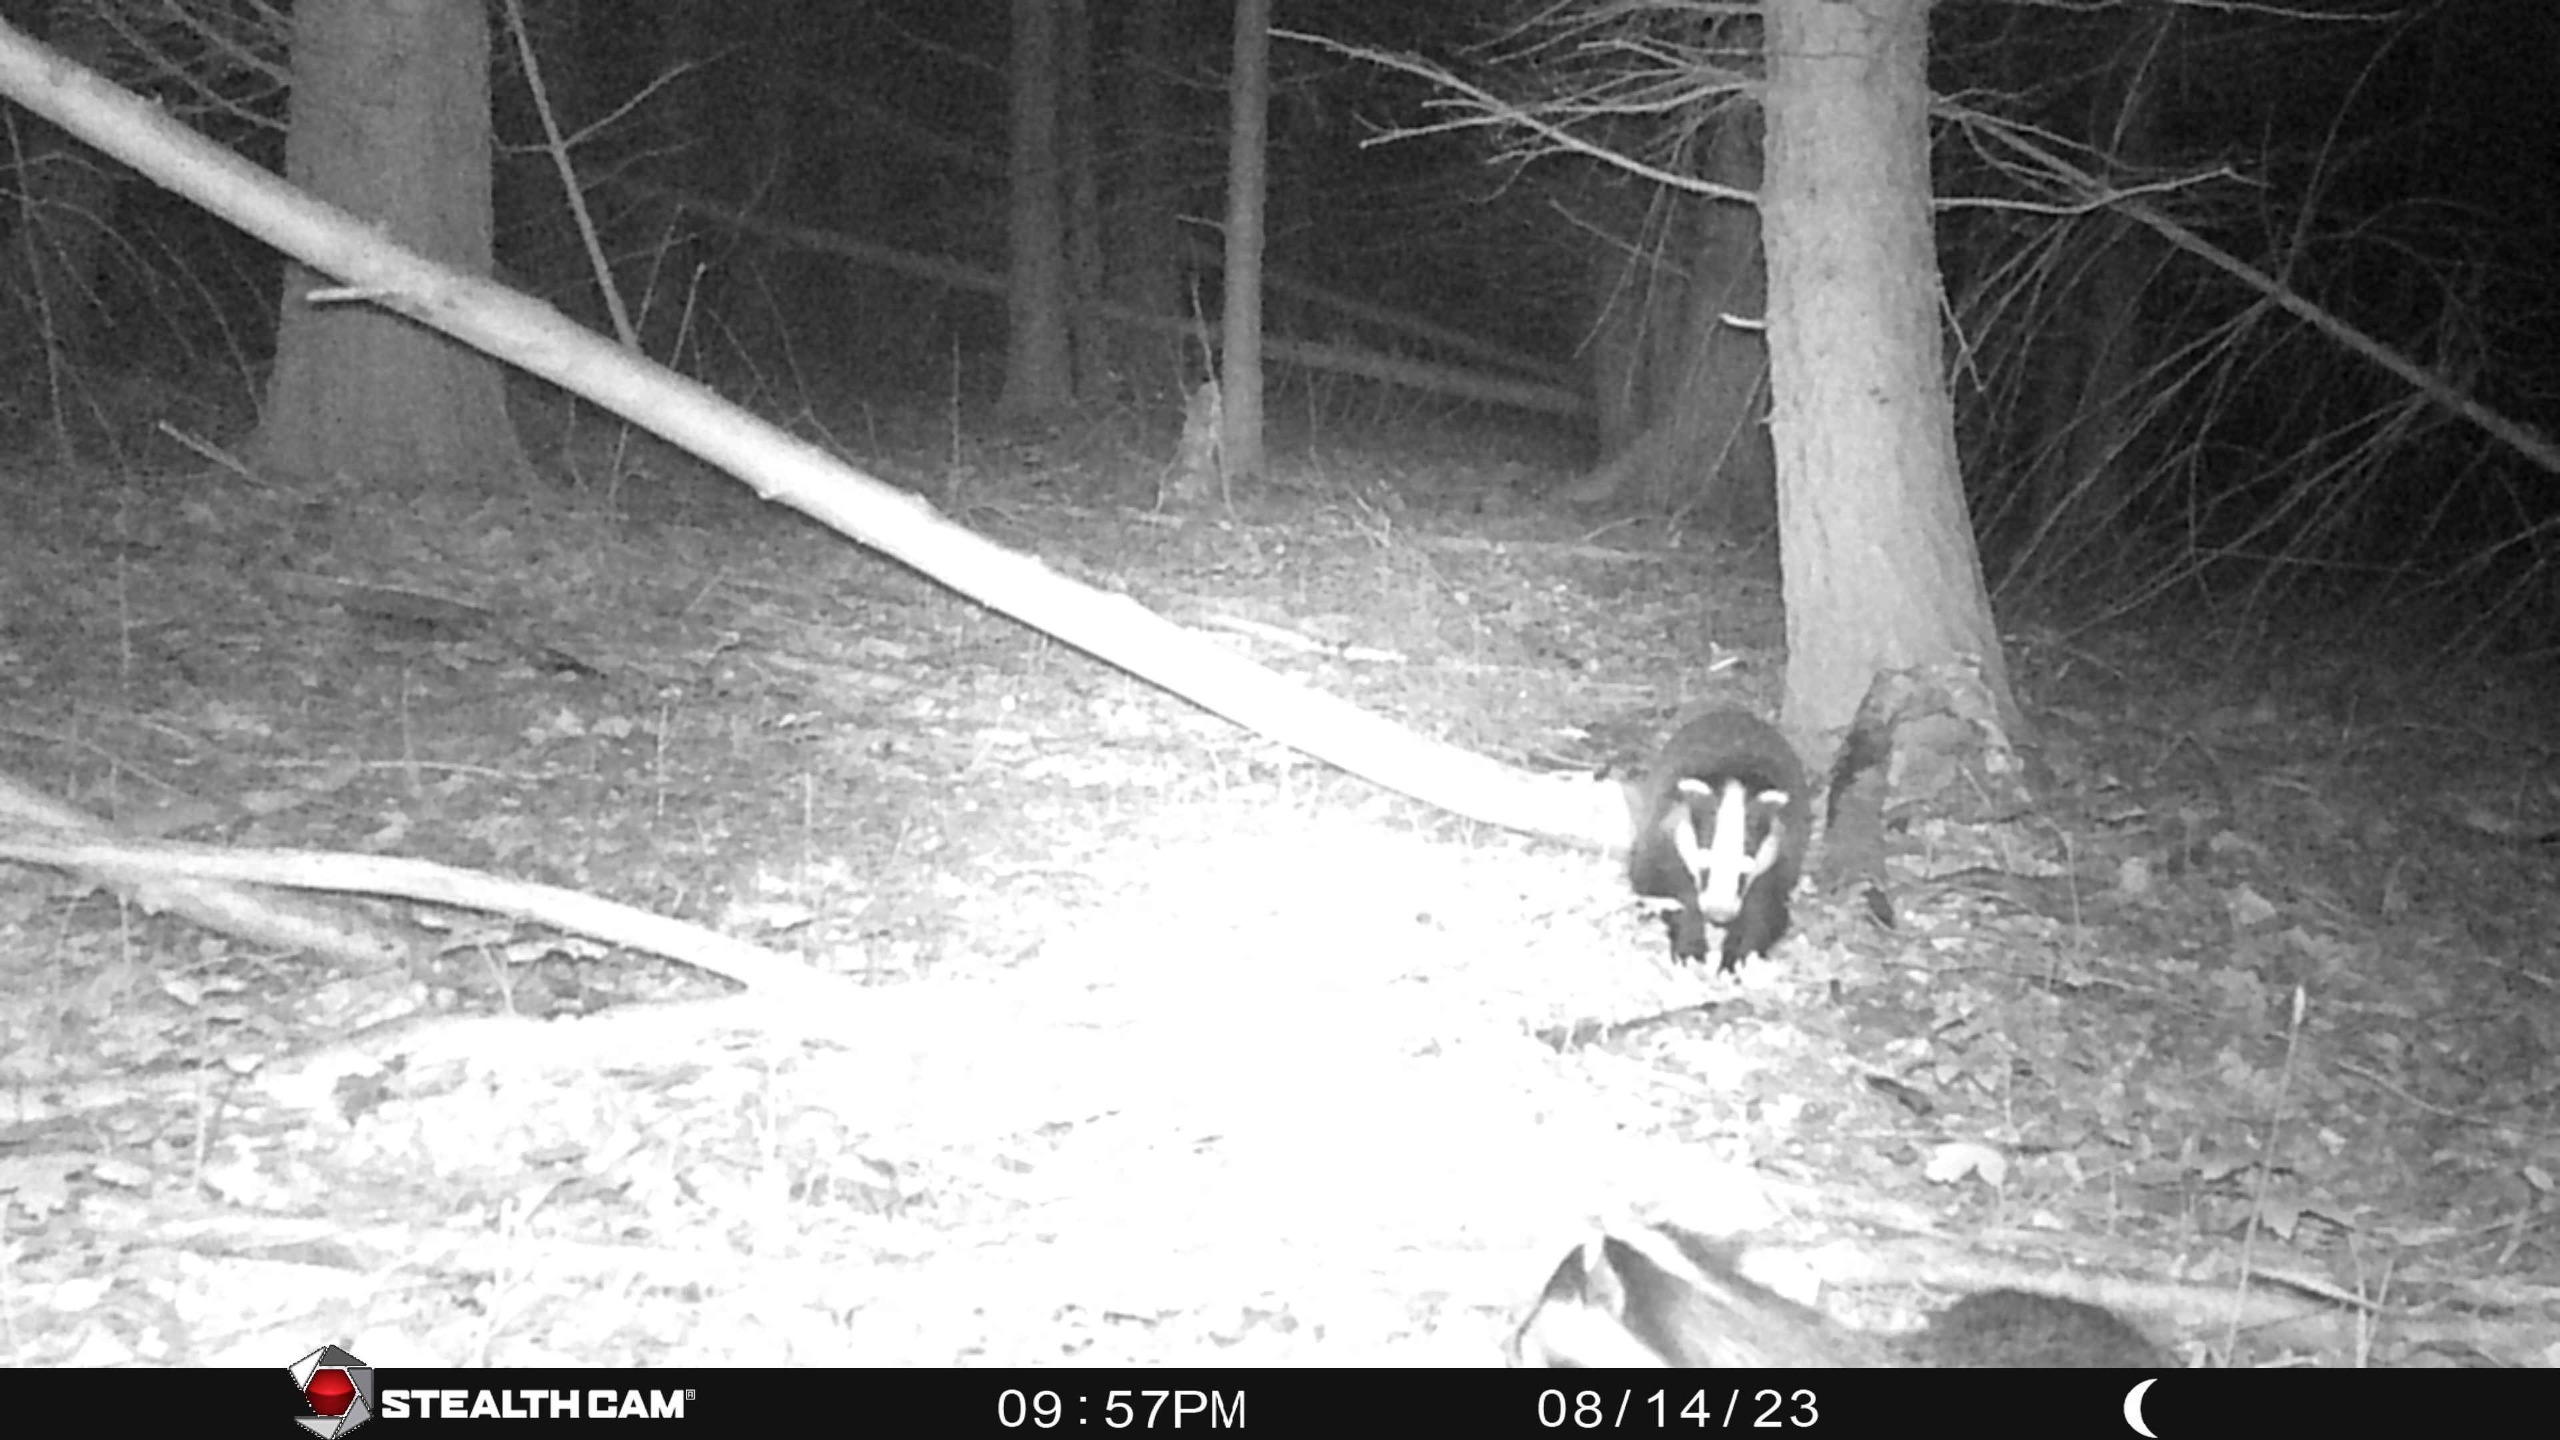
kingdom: Animalia
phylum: Chordata
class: Mammalia
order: Carnivora
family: Mustelidae
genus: Meles
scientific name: Meles meles
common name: Grævling
